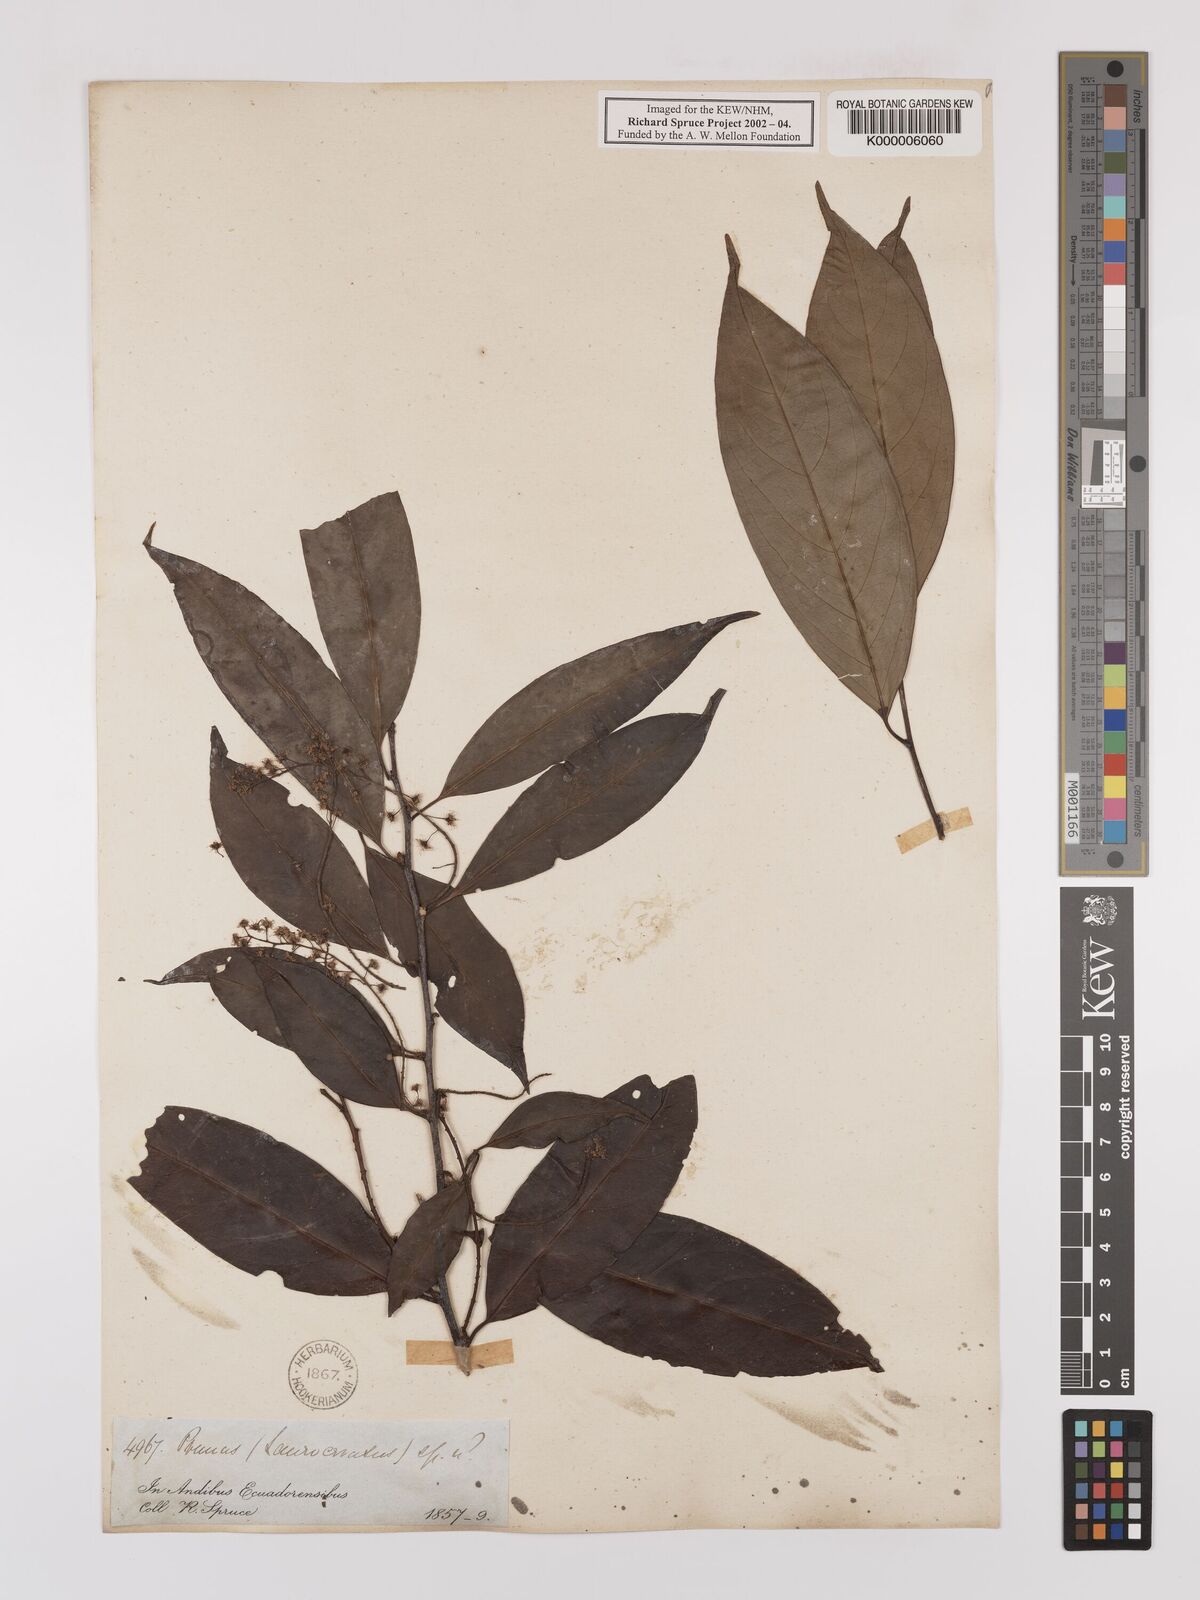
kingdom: Plantae
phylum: Tracheophyta
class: Magnoliopsida
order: Rosales
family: Rosaceae
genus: Prunus
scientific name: Prunus schultzeae
